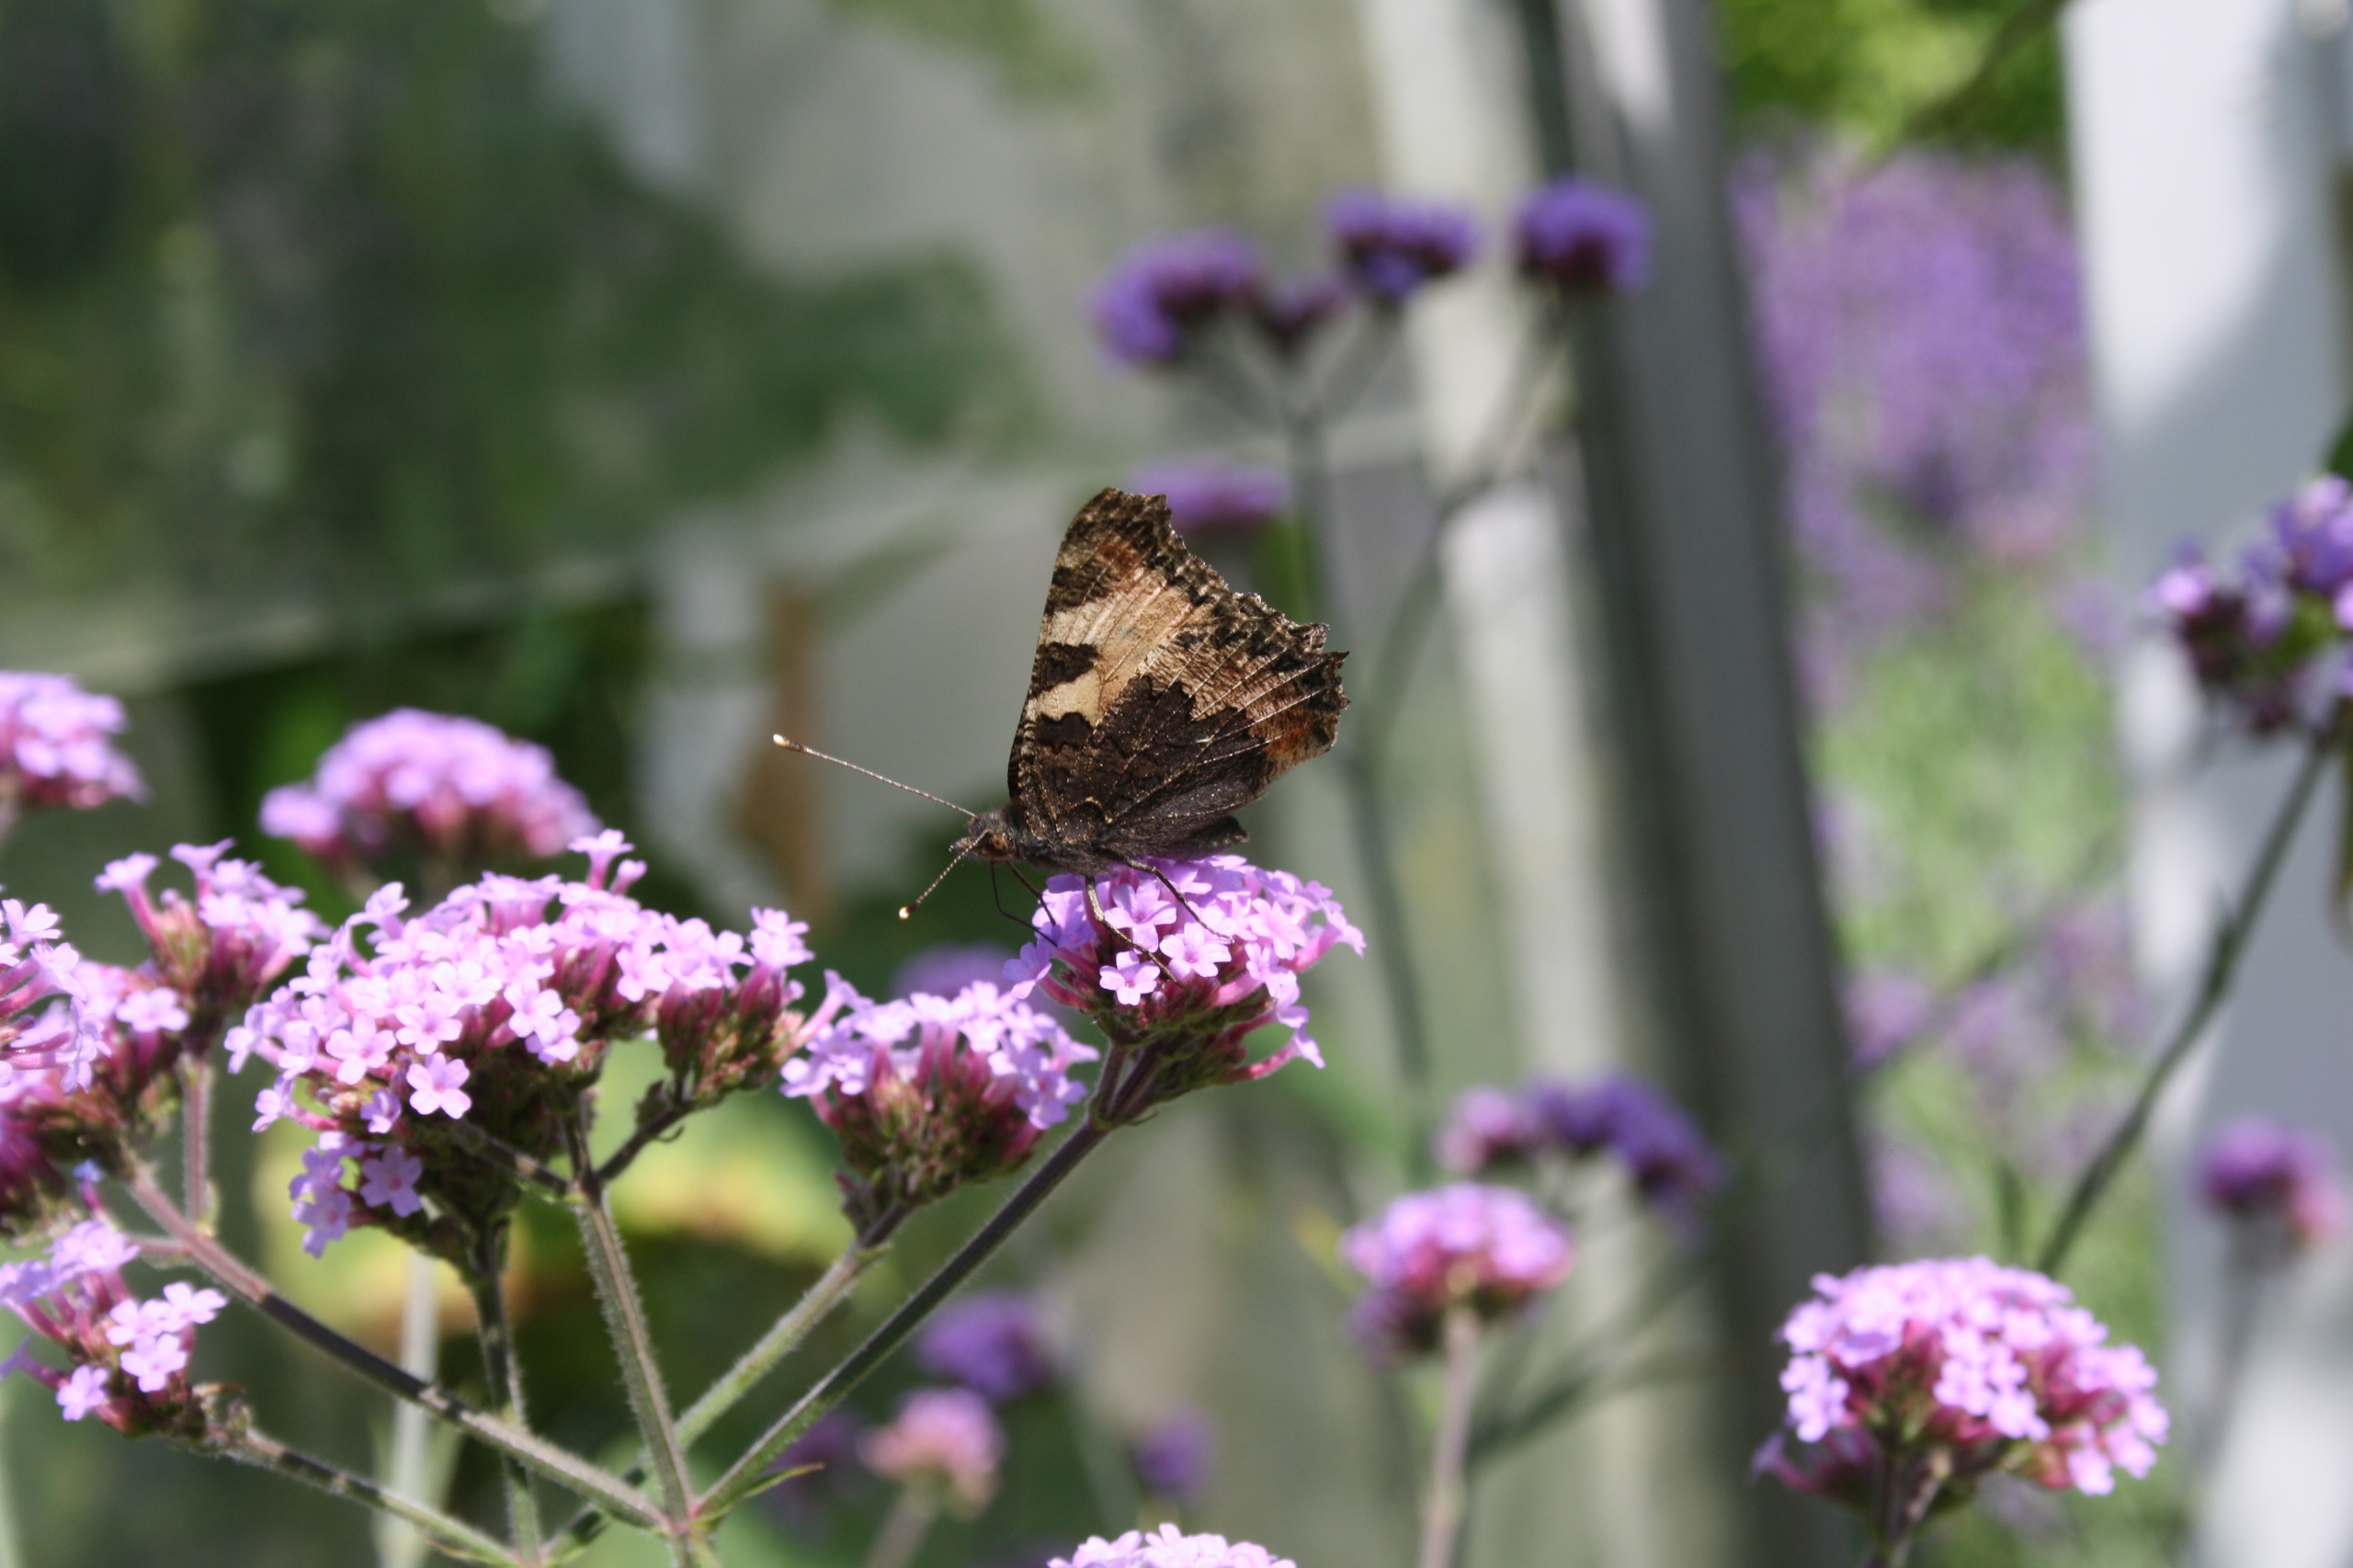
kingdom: Animalia
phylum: Arthropoda
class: Insecta
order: Lepidoptera
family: Nymphalidae
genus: Aglais
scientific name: Aglais urticae
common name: Nældens takvinge
